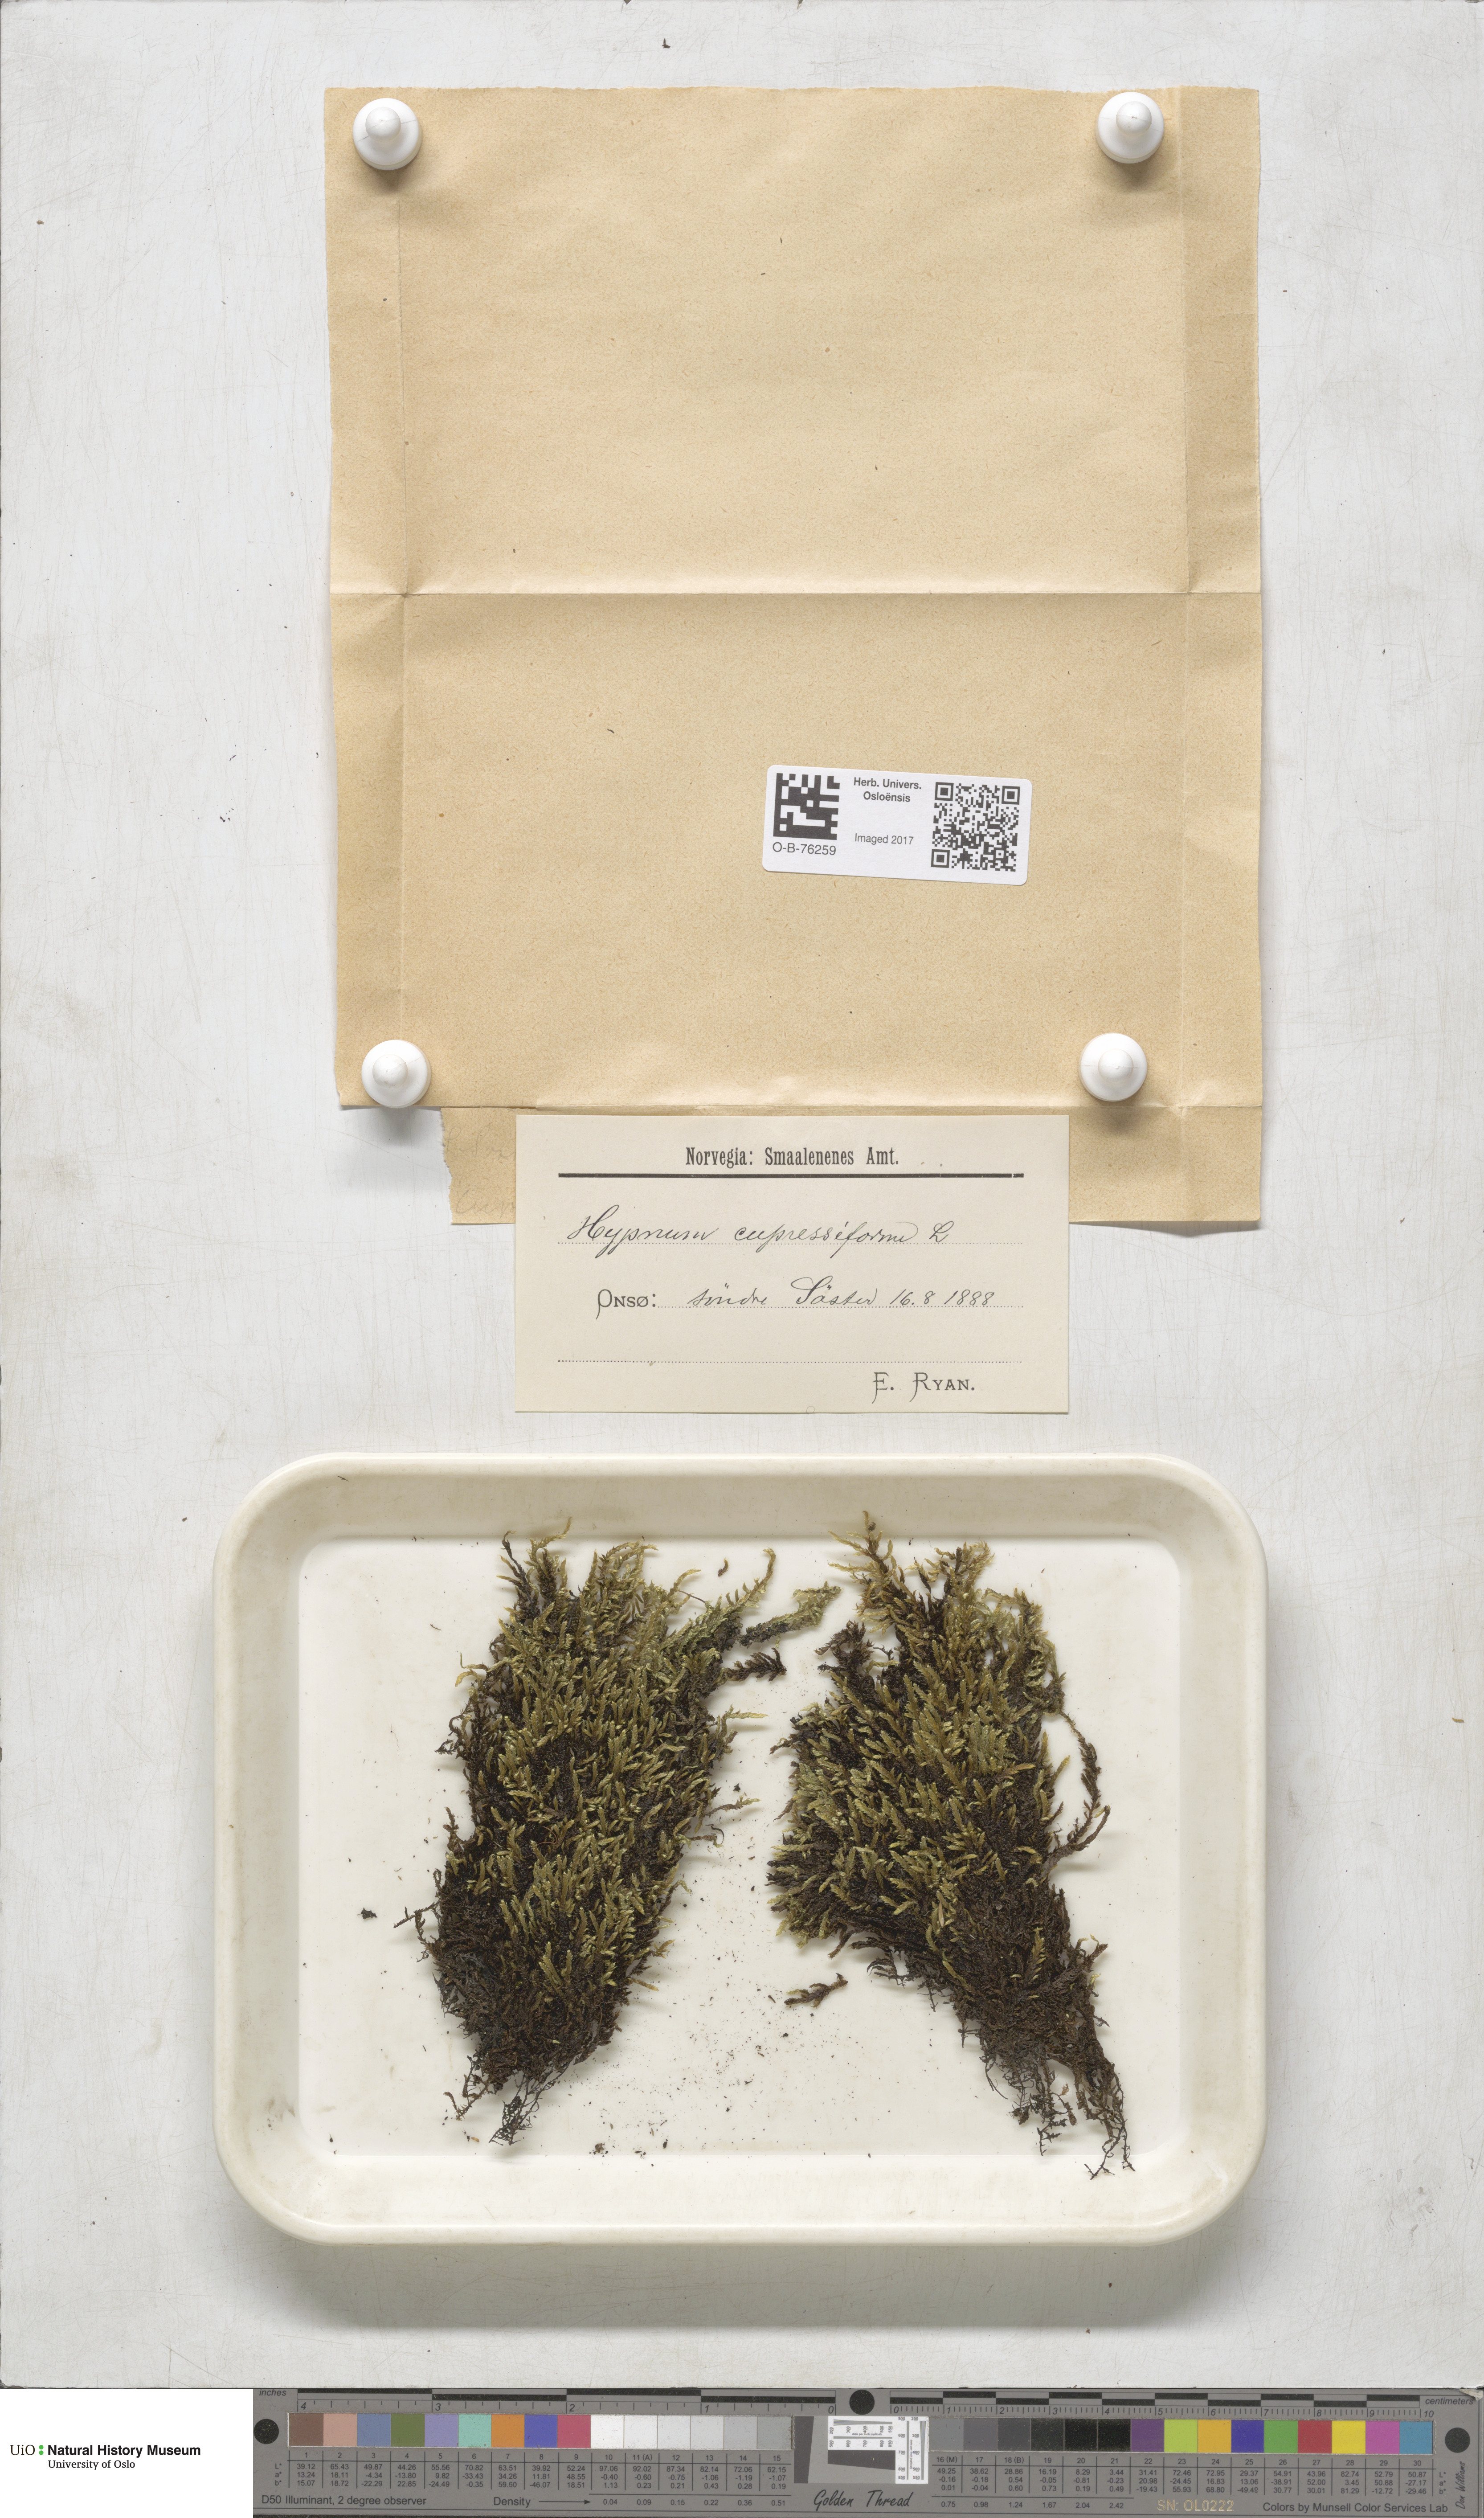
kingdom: Plantae
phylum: Bryophyta
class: Bryopsida
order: Hypnales
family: Hypnaceae
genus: Hypnum
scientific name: Hypnum cupressiforme
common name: Cypress-leaved plait-moss
